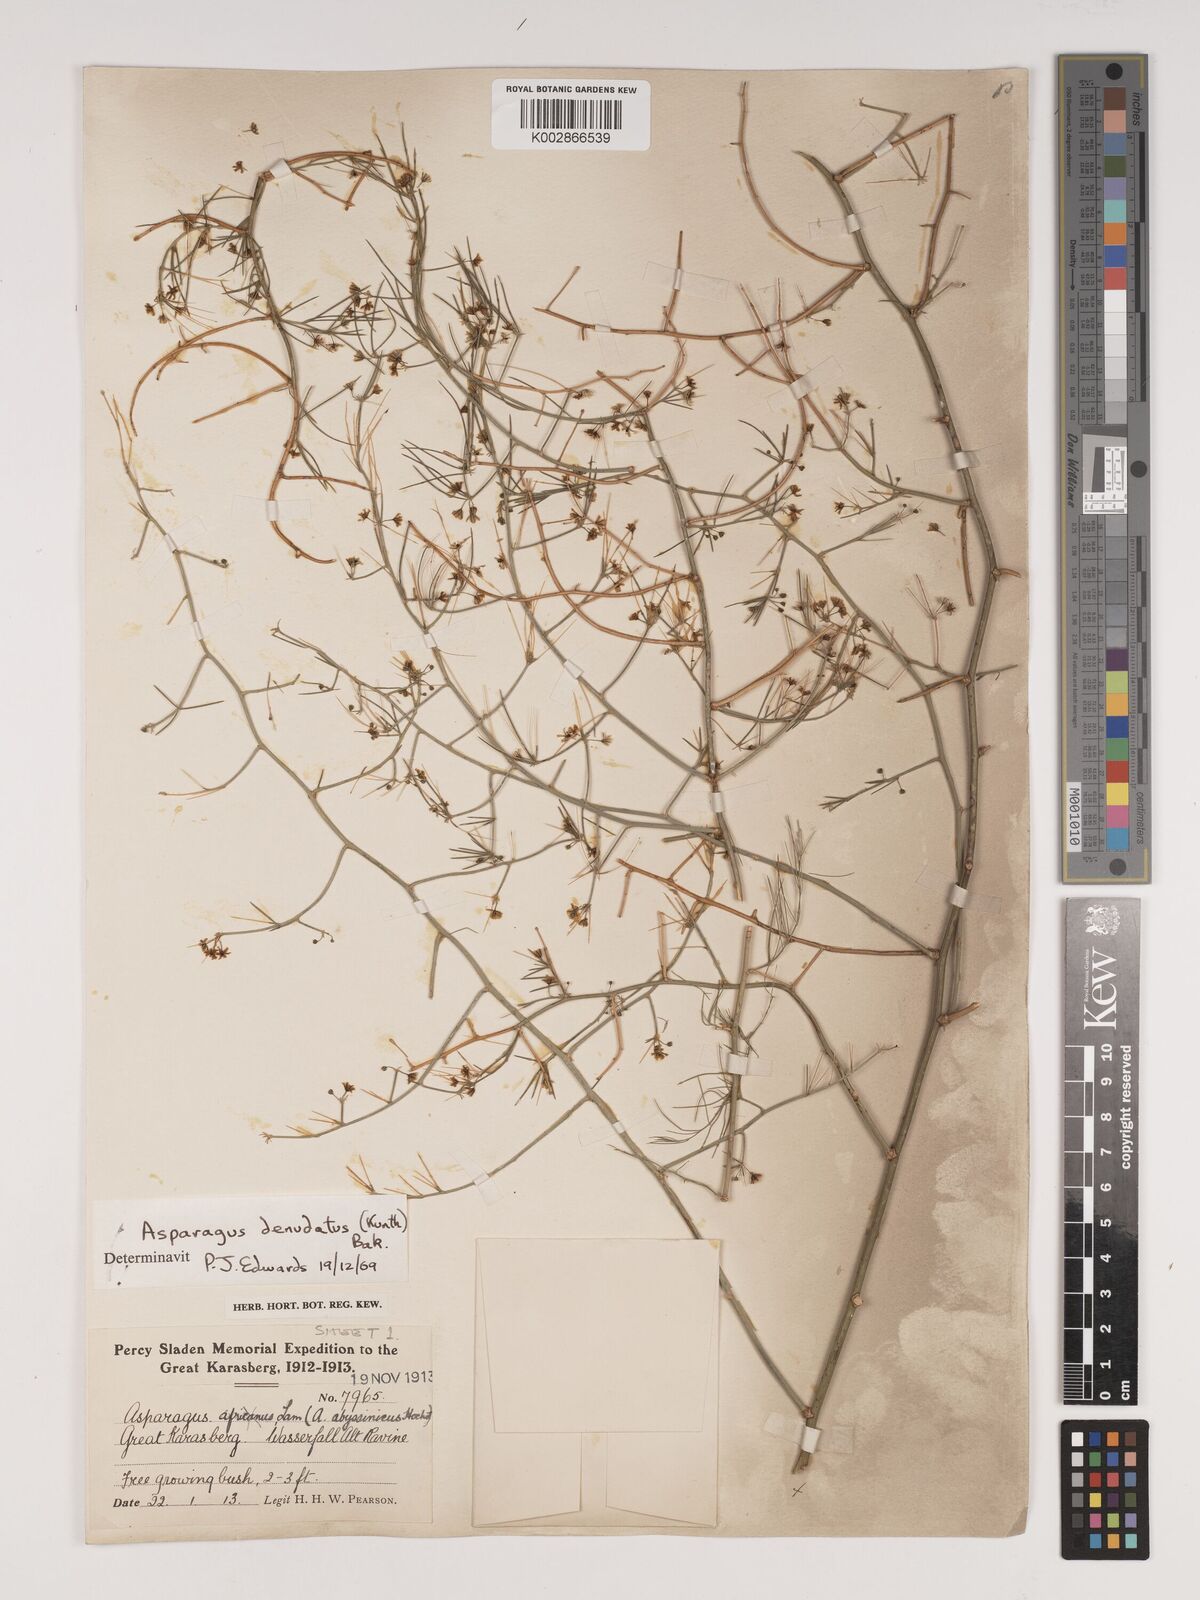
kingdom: Plantae
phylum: Tracheophyta
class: Liliopsida
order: Asparagales
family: Asparagaceae
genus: Asparagus
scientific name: Asparagus denudatus
